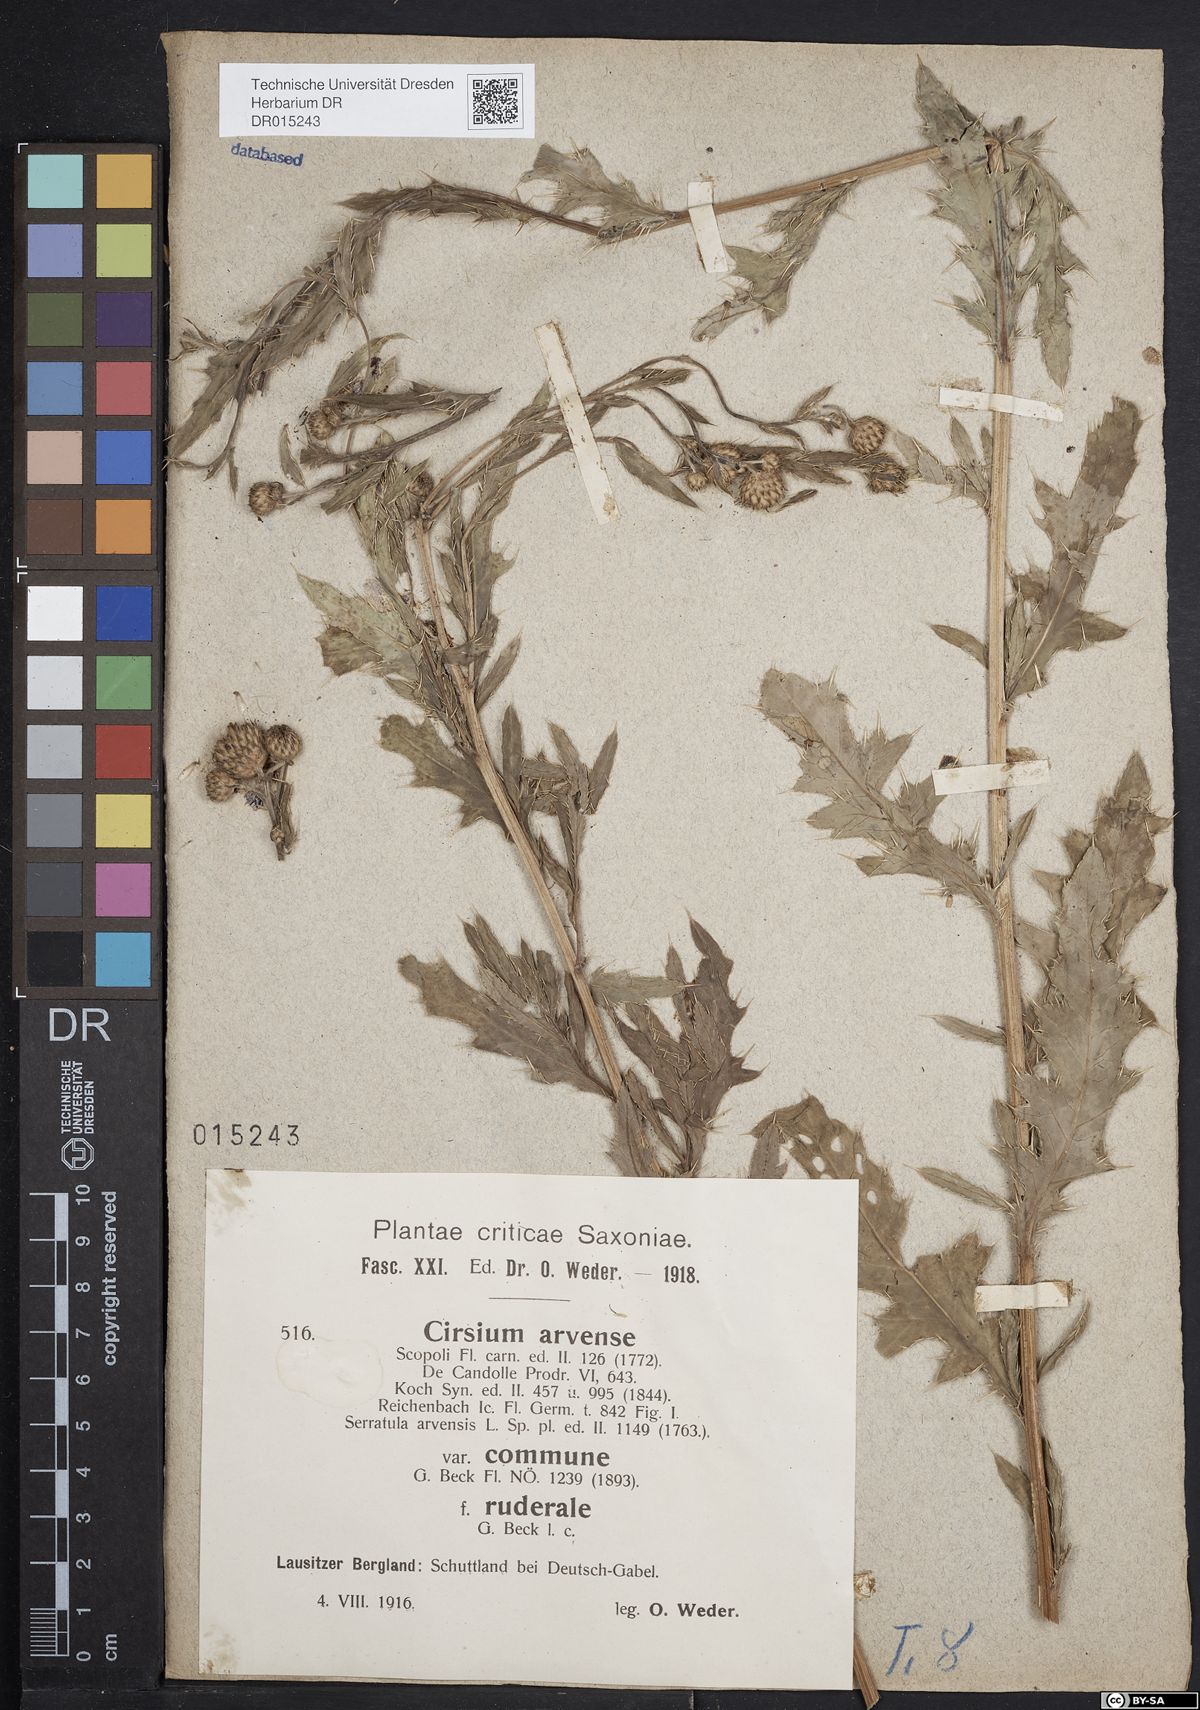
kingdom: Plantae
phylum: Tracheophyta
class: Magnoliopsida
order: Asterales
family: Asteraceae
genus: Cirsium
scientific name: Cirsium arvense
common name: Creeping thistle
